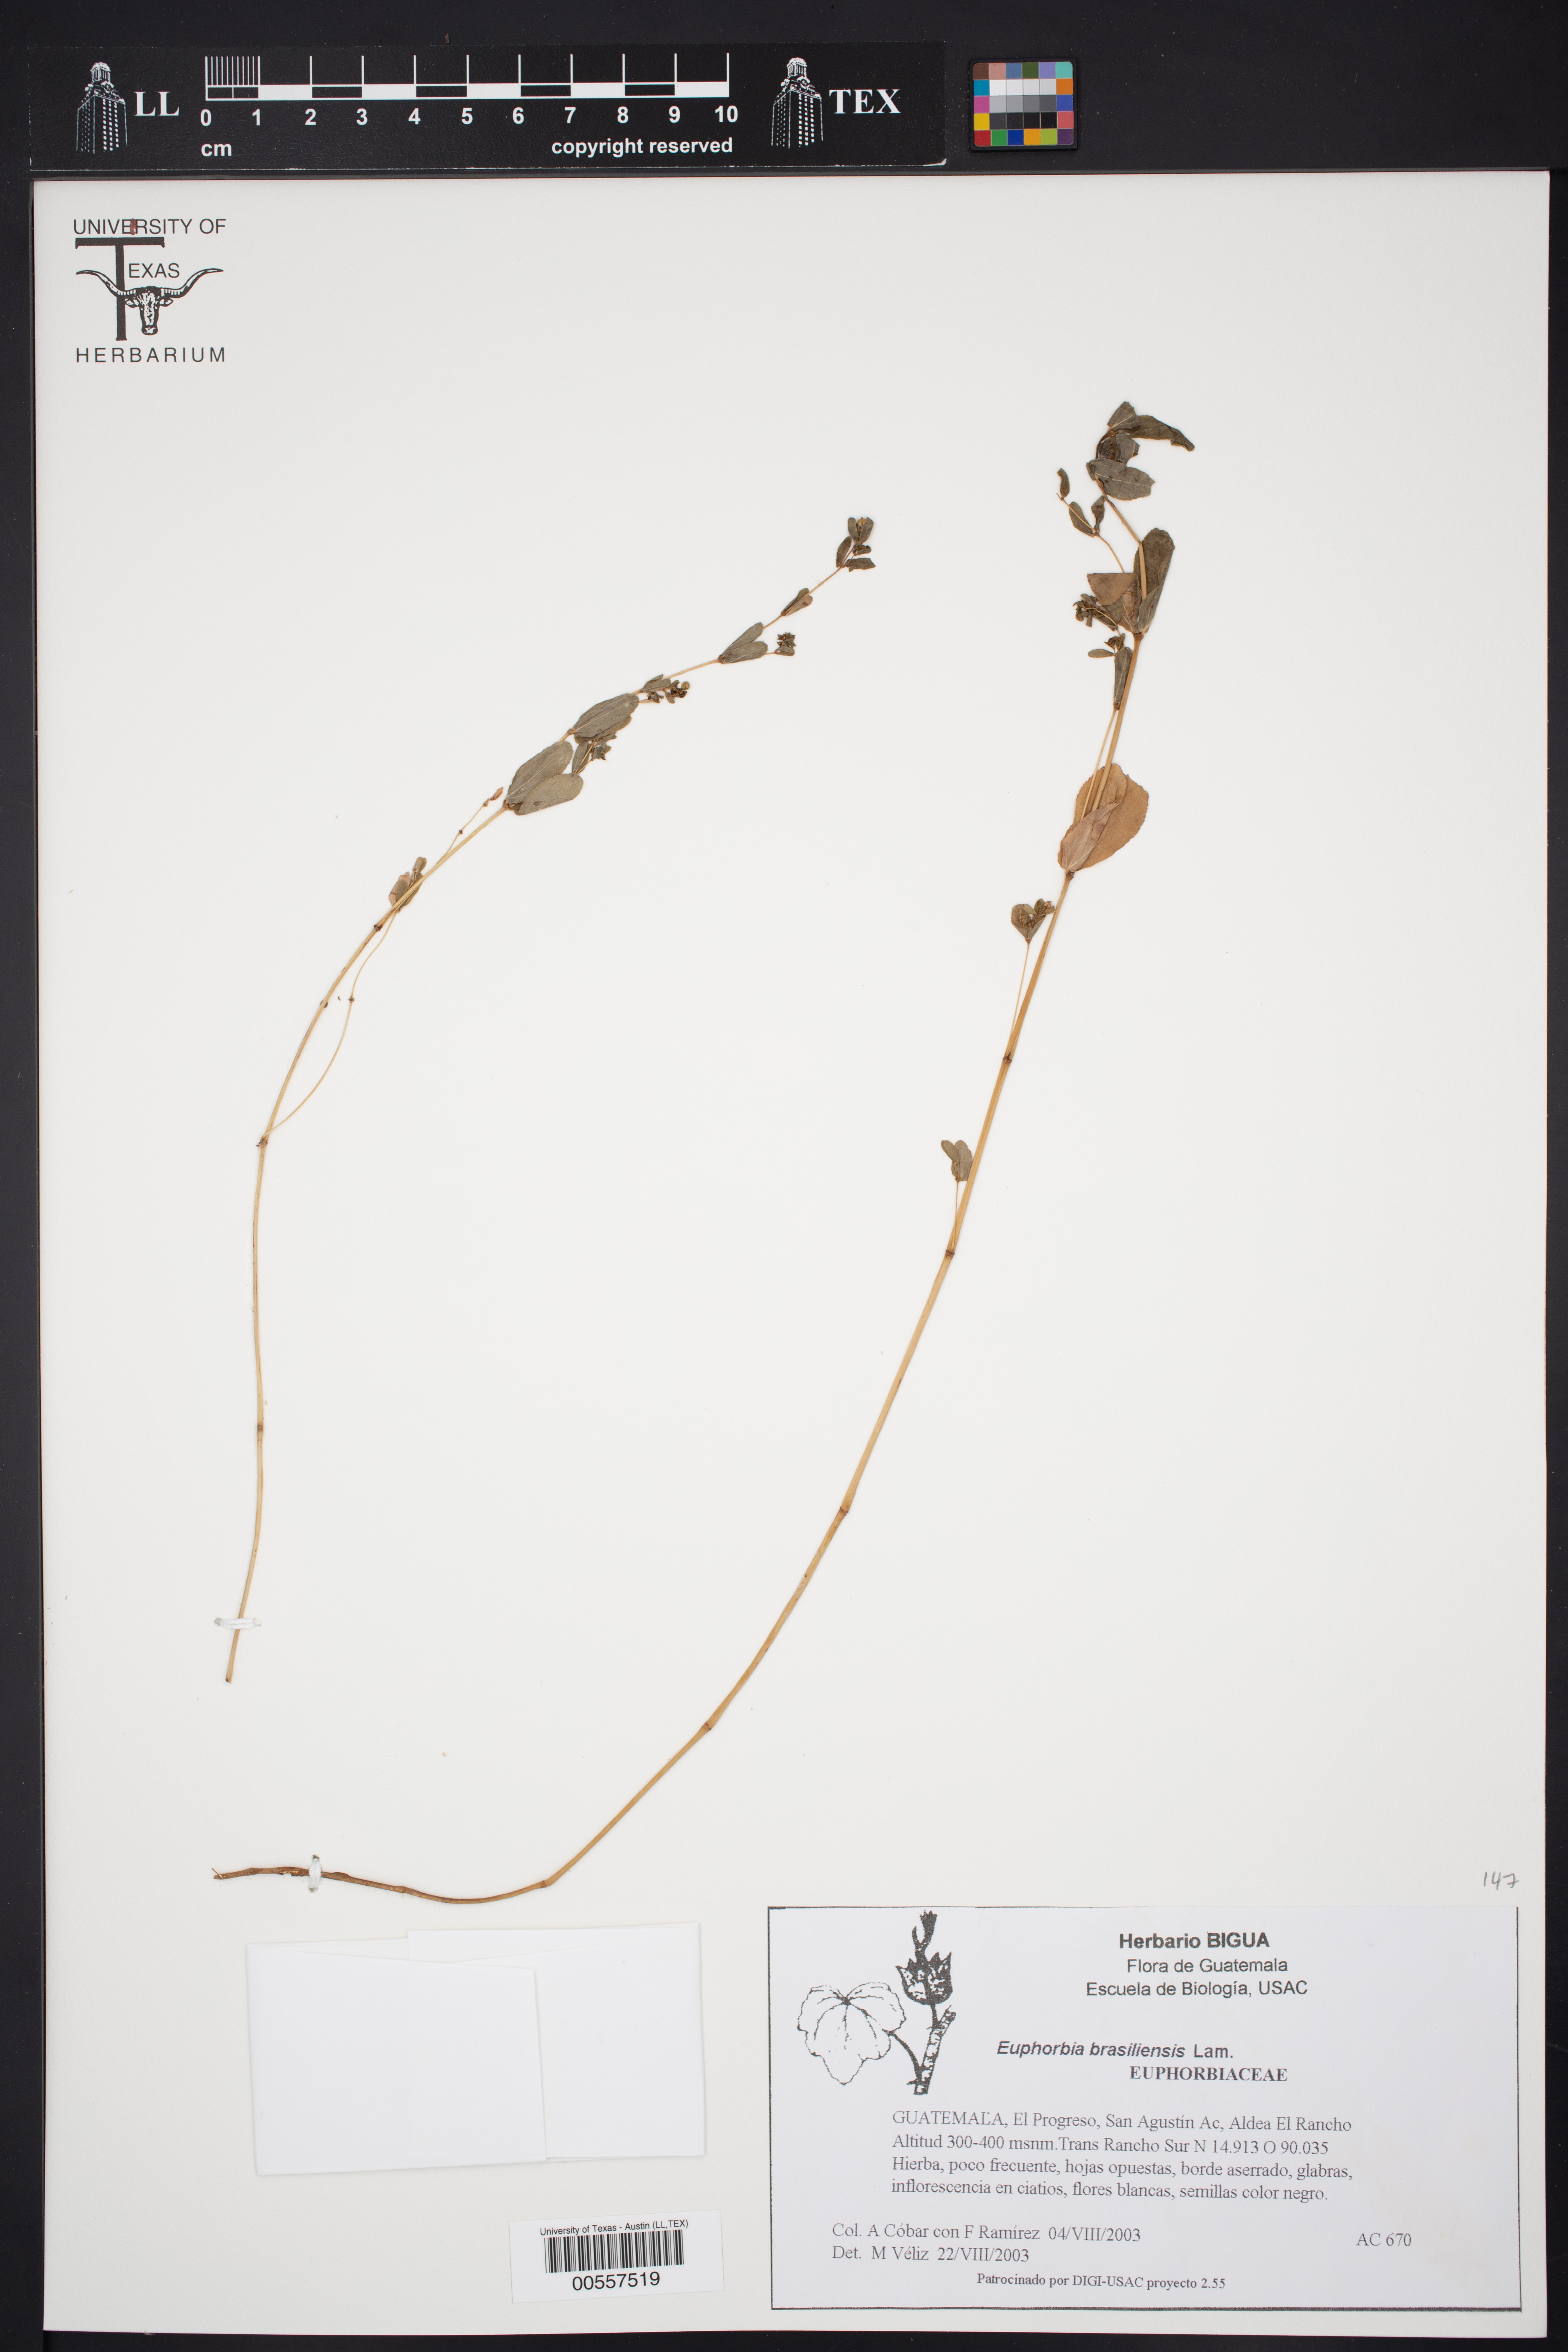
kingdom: Plantae
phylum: Tracheophyta
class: Magnoliopsida
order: Malpighiales
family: Euphorbiaceae
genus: Euphorbia
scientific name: Euphorbia hyssopifolia
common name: Hyssopleaf sandmat
